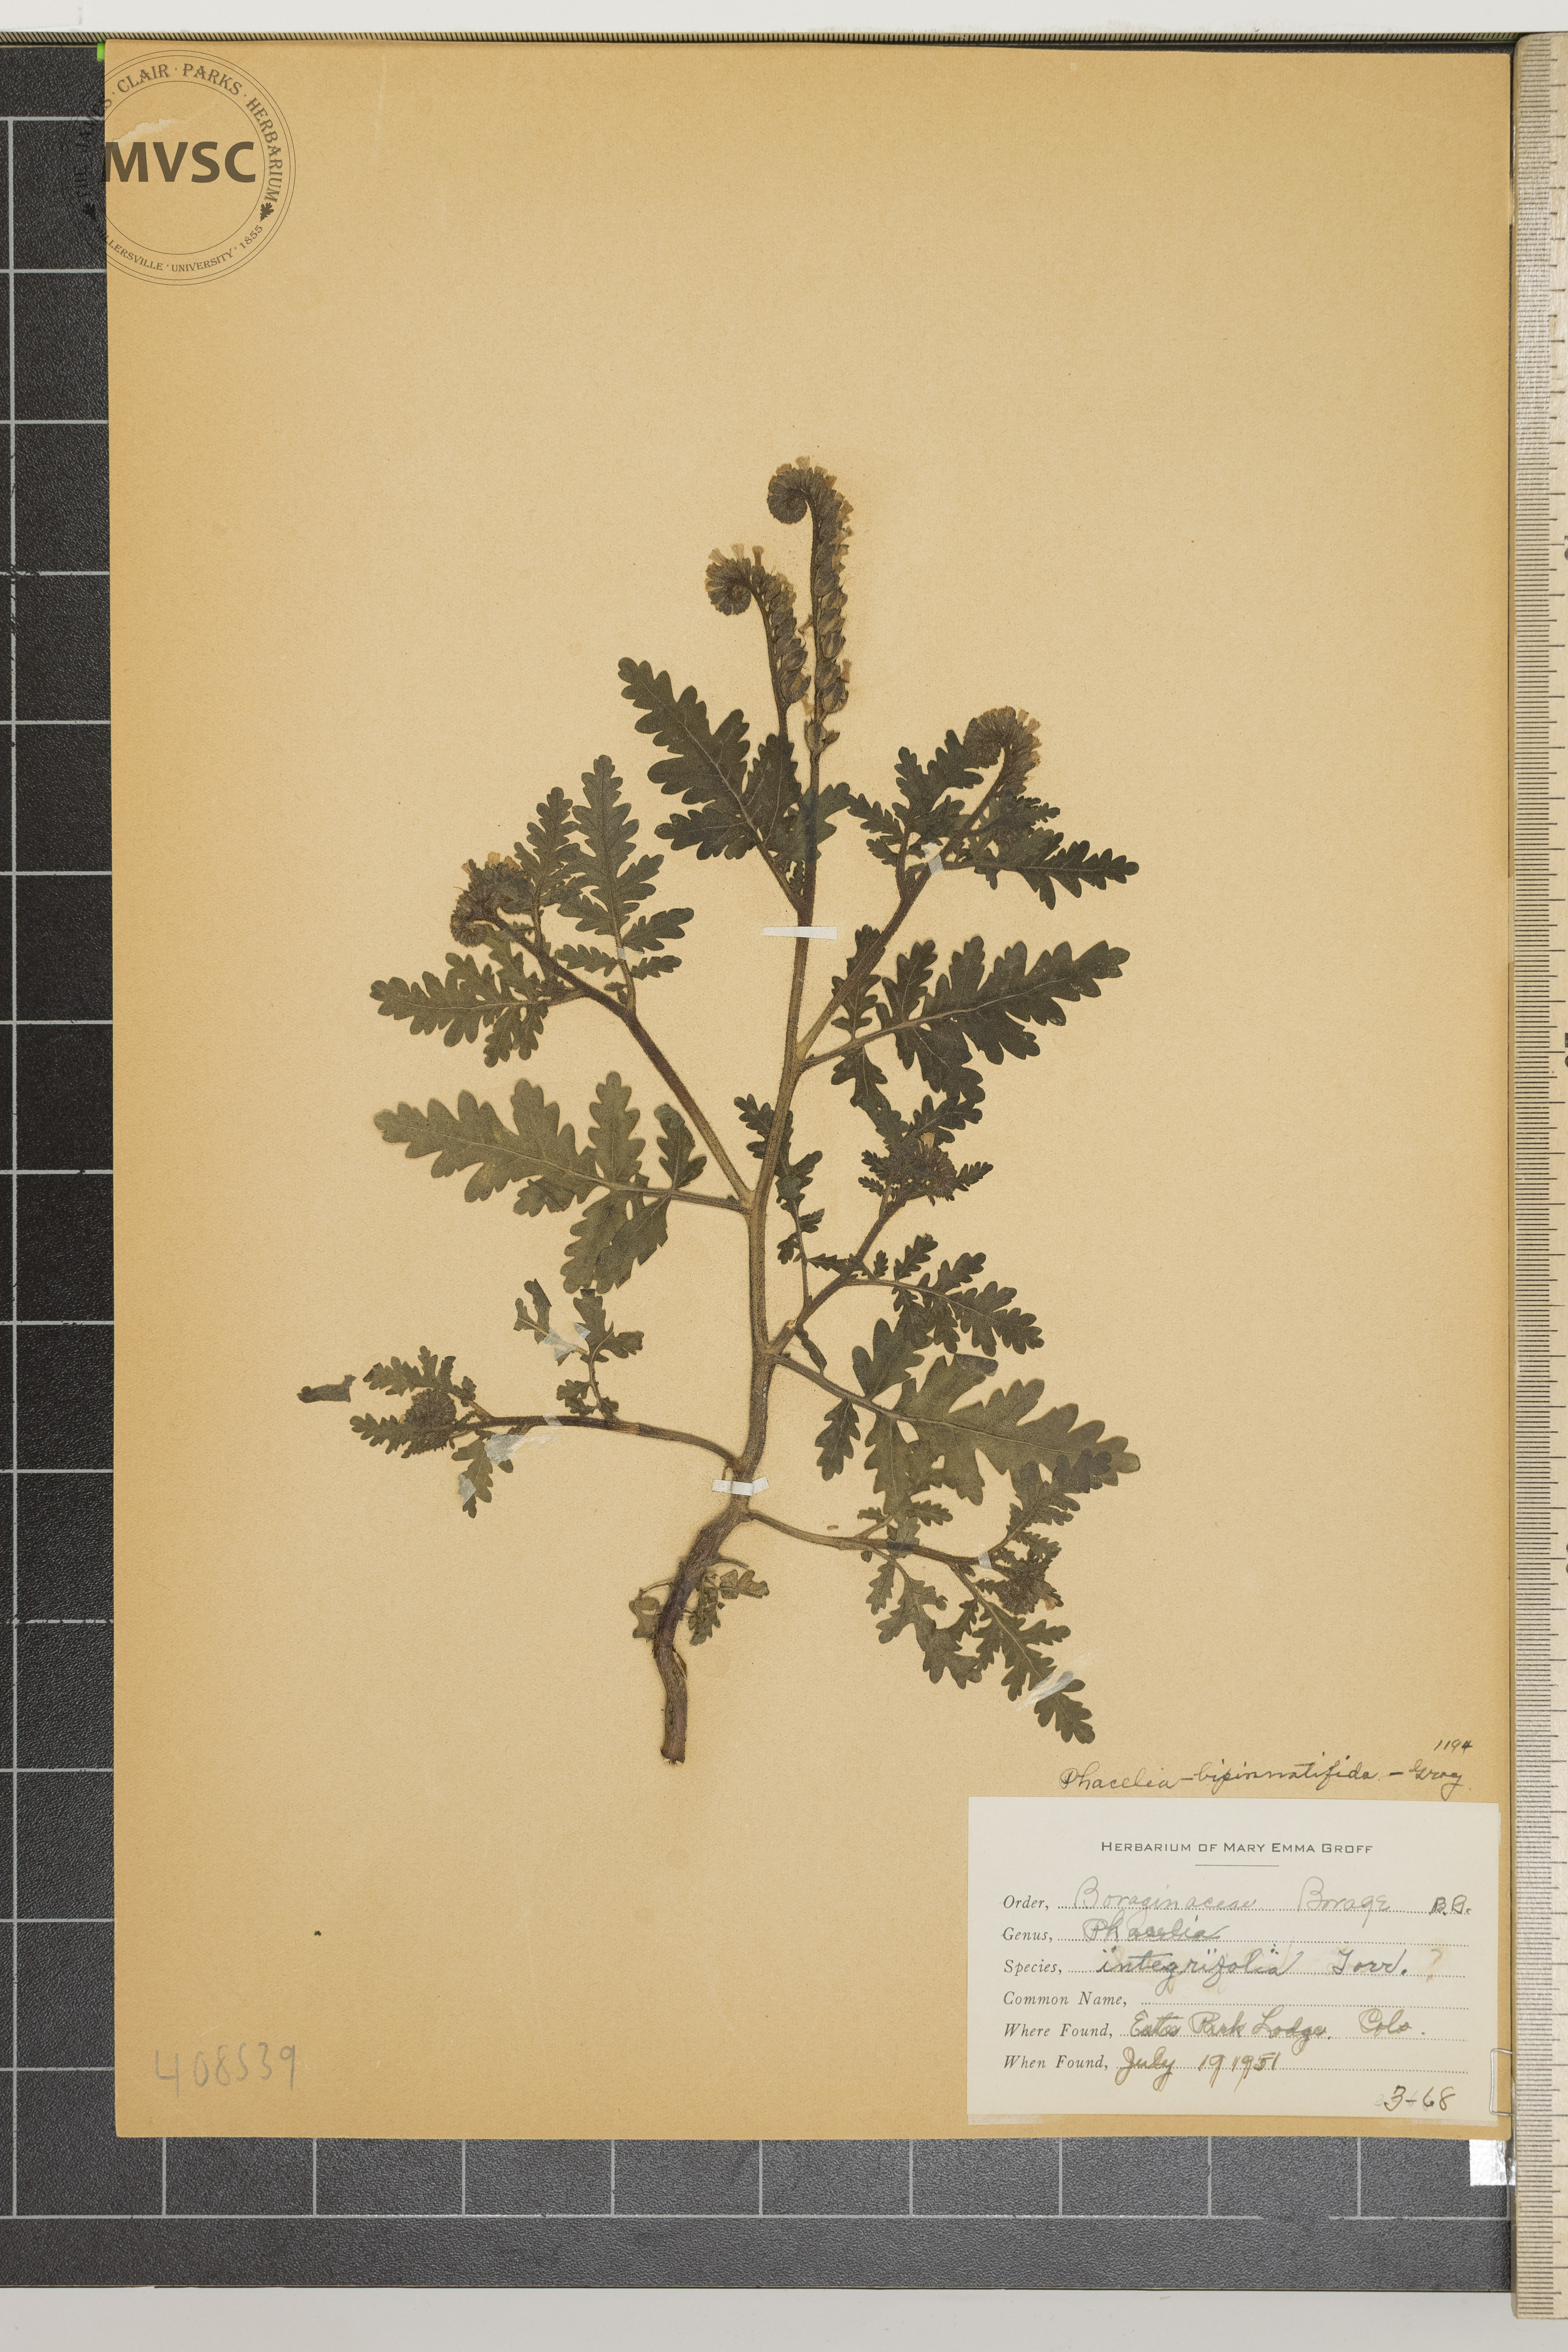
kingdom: Plantae
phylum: Tracheophyta
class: Magnoliopsida
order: Boraginales
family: Hydrophyllaceae
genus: Phacelia
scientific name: Phacelia integrifolia
